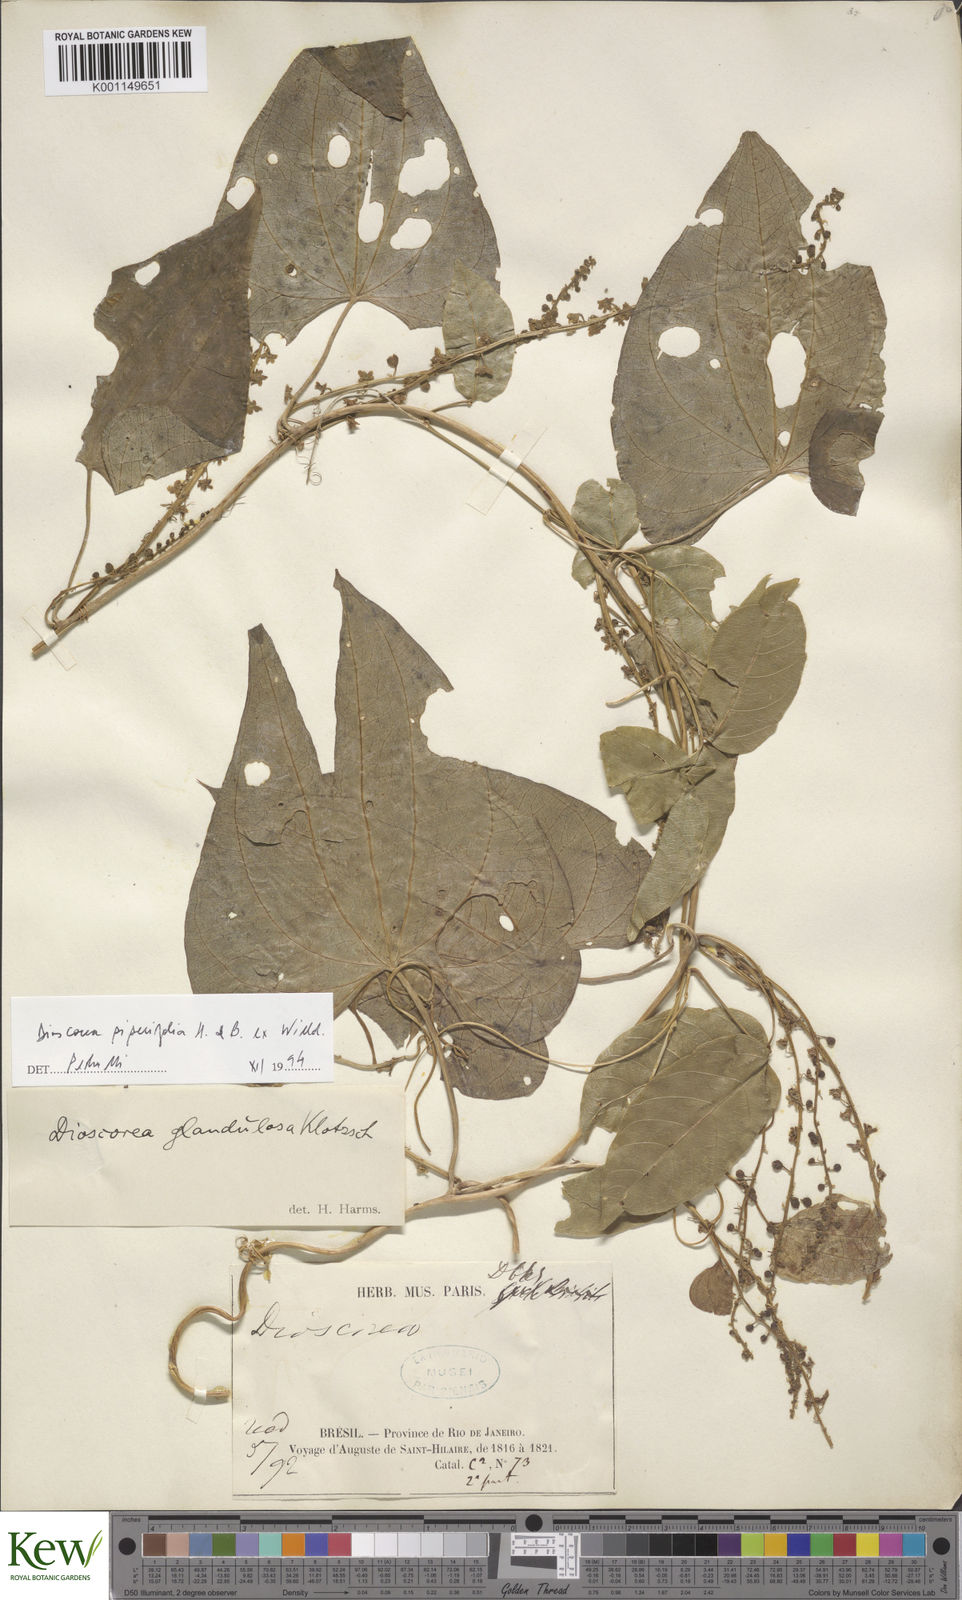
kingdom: Plantae
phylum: Tracheophyta
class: Liliopsida
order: Dioscoreales
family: Dioscoreaceae
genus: Dioscorea
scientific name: Dioscorea glandulosa
